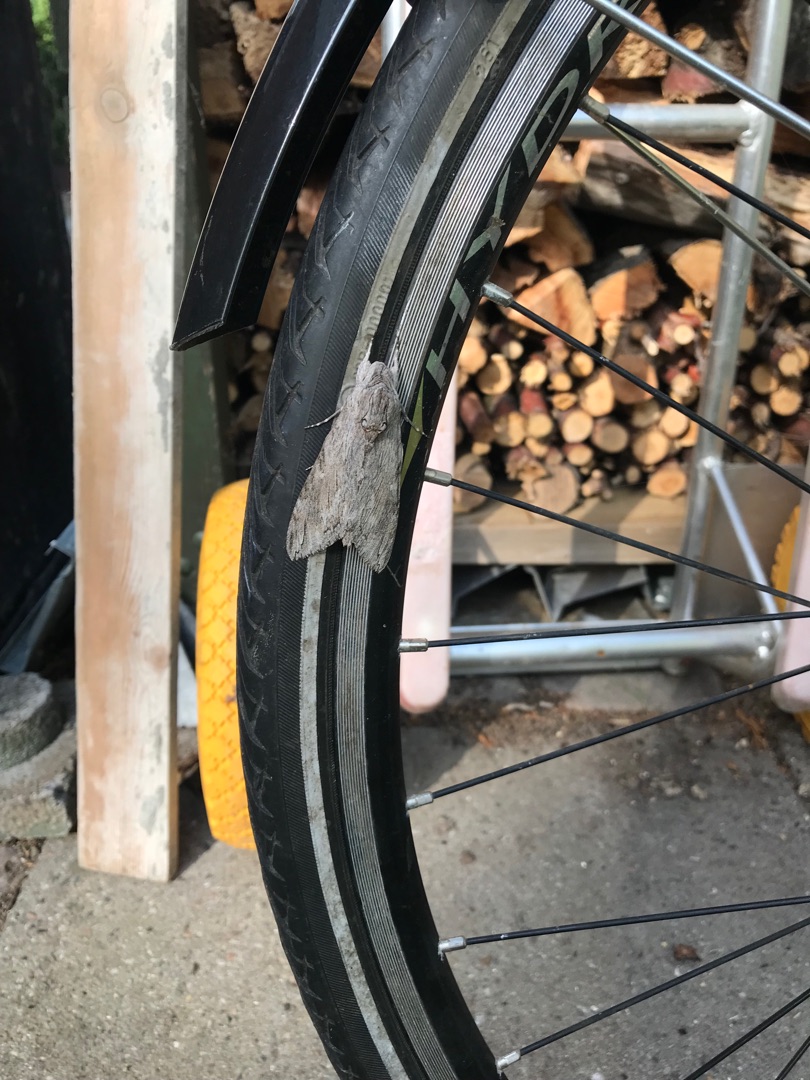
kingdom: Animalia
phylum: Arthropoda
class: Insecta
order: Lepidoptera
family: Sphingidae
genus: Agrius
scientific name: Agrius convolvuli
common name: Snerlesværmer
